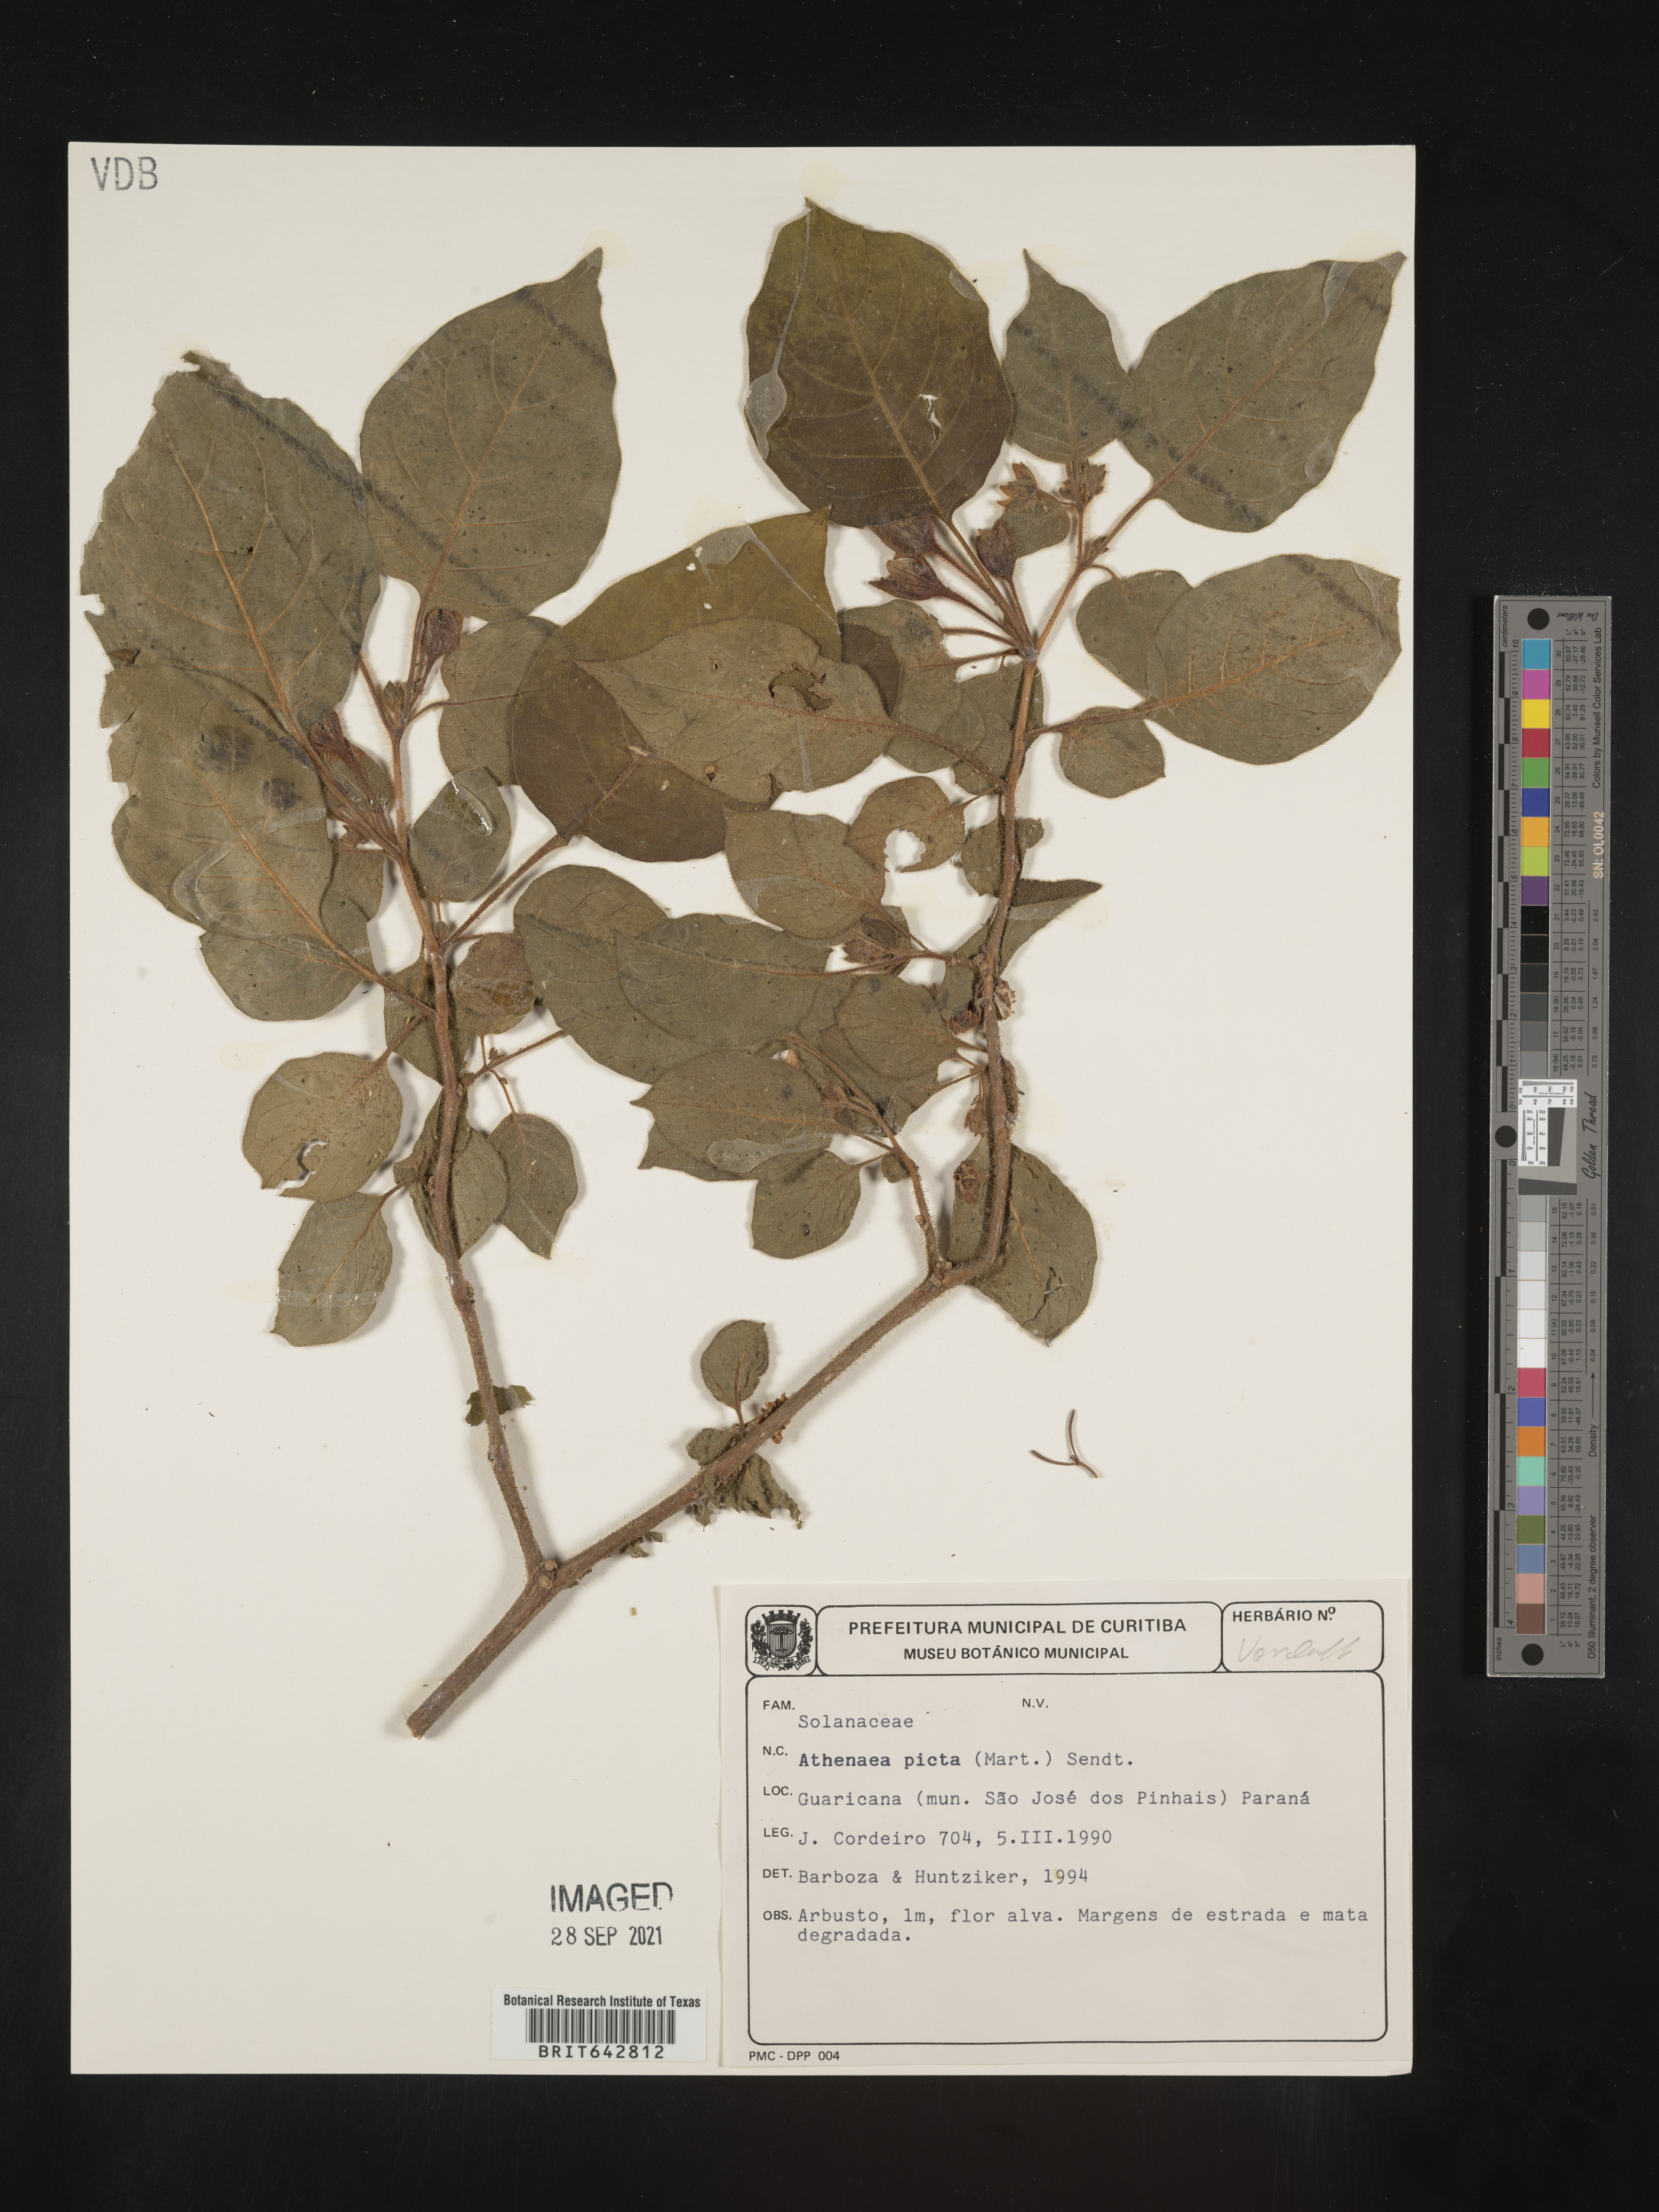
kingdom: Plantae
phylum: Tracheophyta
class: Magnoliopsida
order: Solanales
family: Solanaceae
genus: Athenaea
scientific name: Athenaea picta
